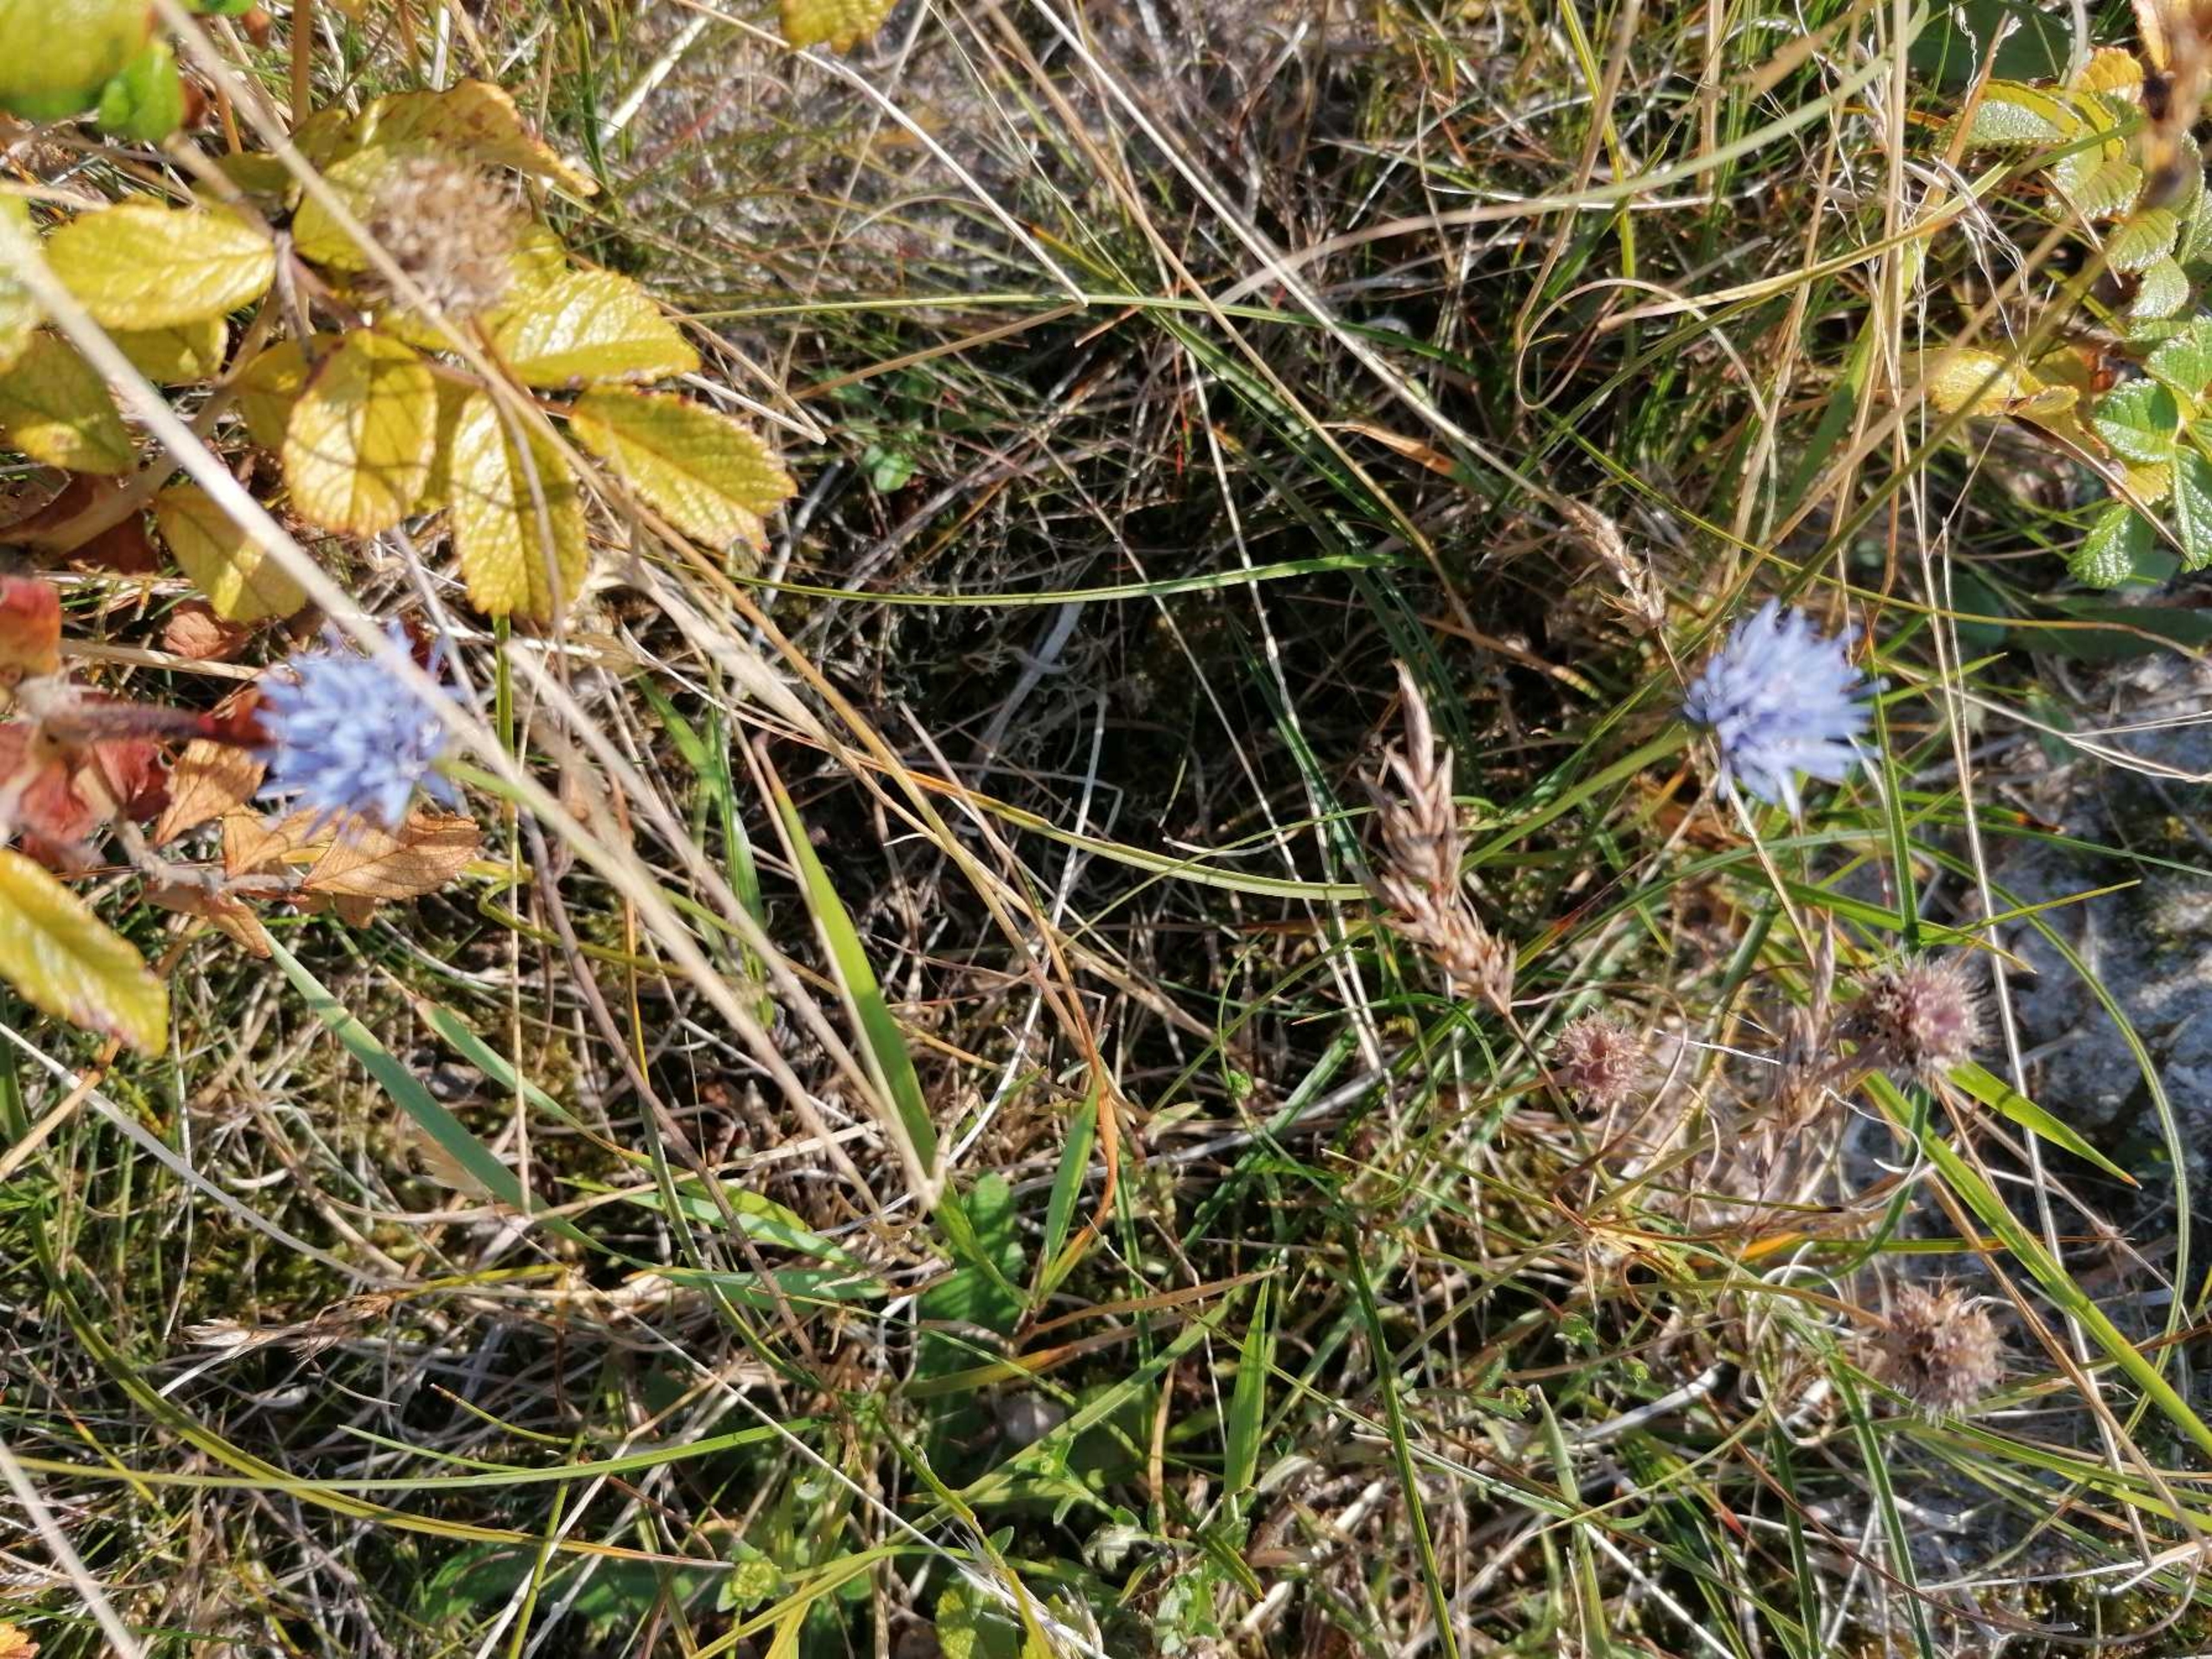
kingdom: Plantae
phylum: Tracheophyta
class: Magnoliopsida
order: Asterales
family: Campanulaceae
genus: Jasione
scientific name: Jasione montana
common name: Blåmunke
